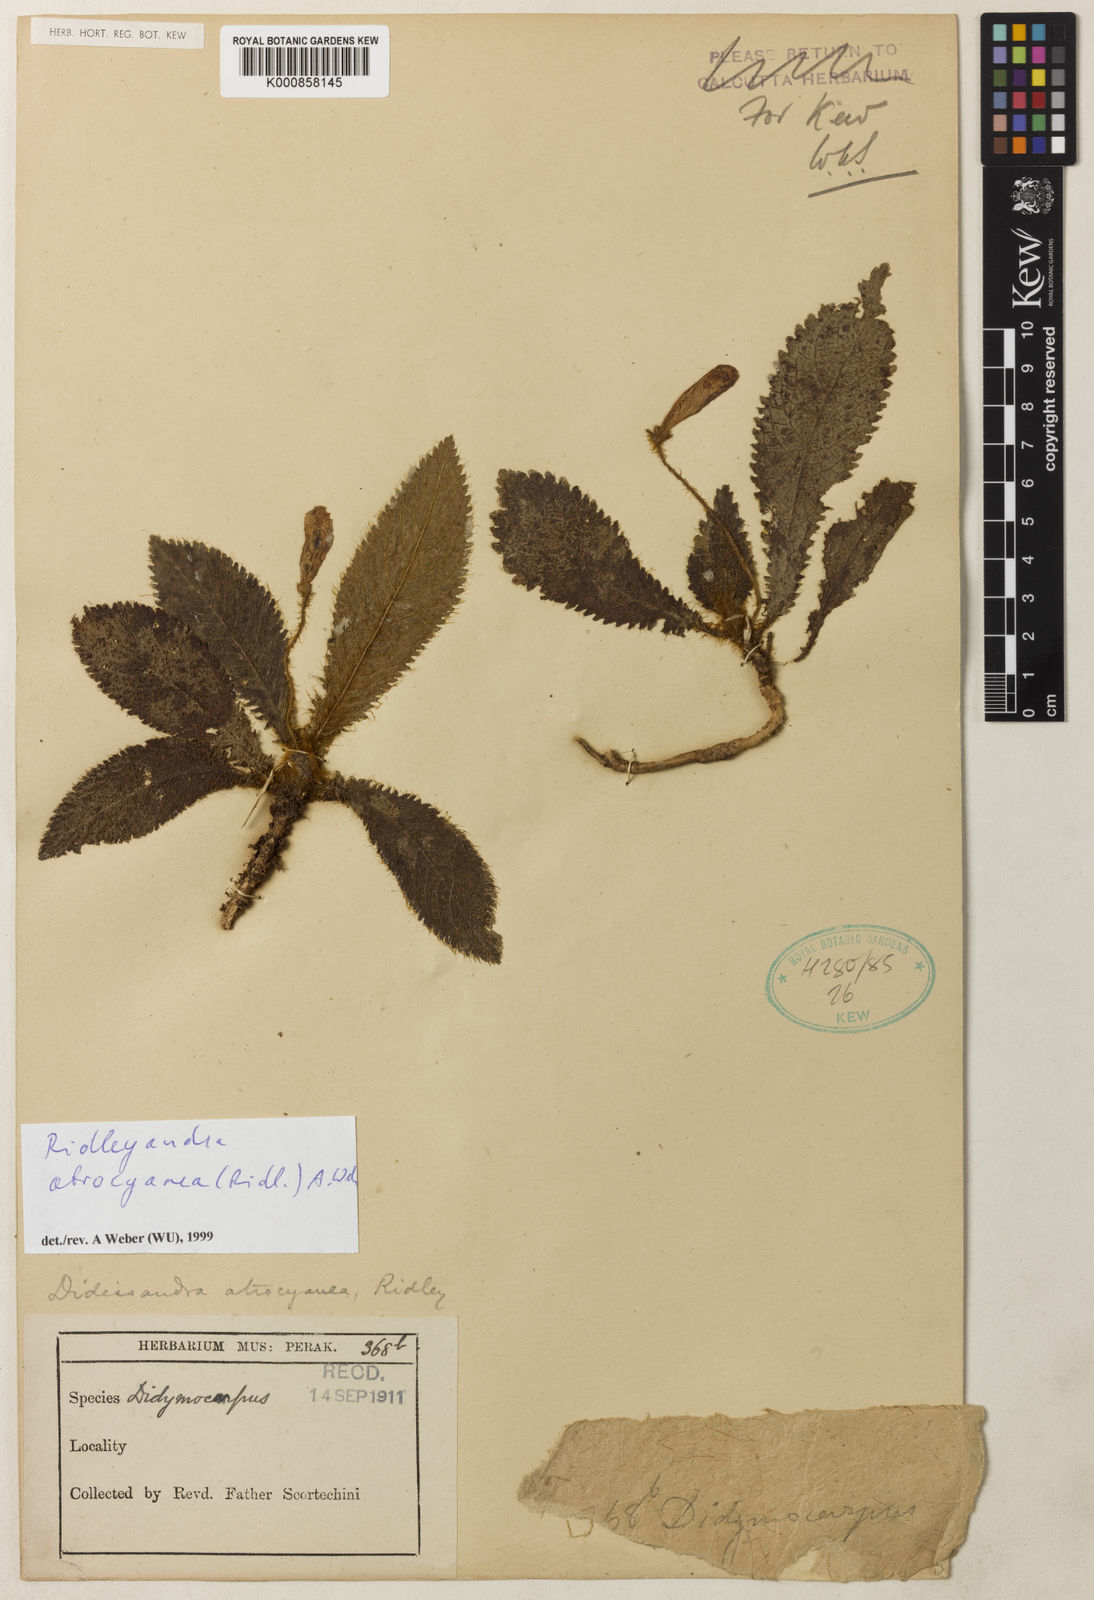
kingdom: Plantae
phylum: Tracheophyta
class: Magnoliopsida
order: Lamiales
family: Gesneriaceae
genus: Ridleyandra
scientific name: Ridleyandra atrocyanea
